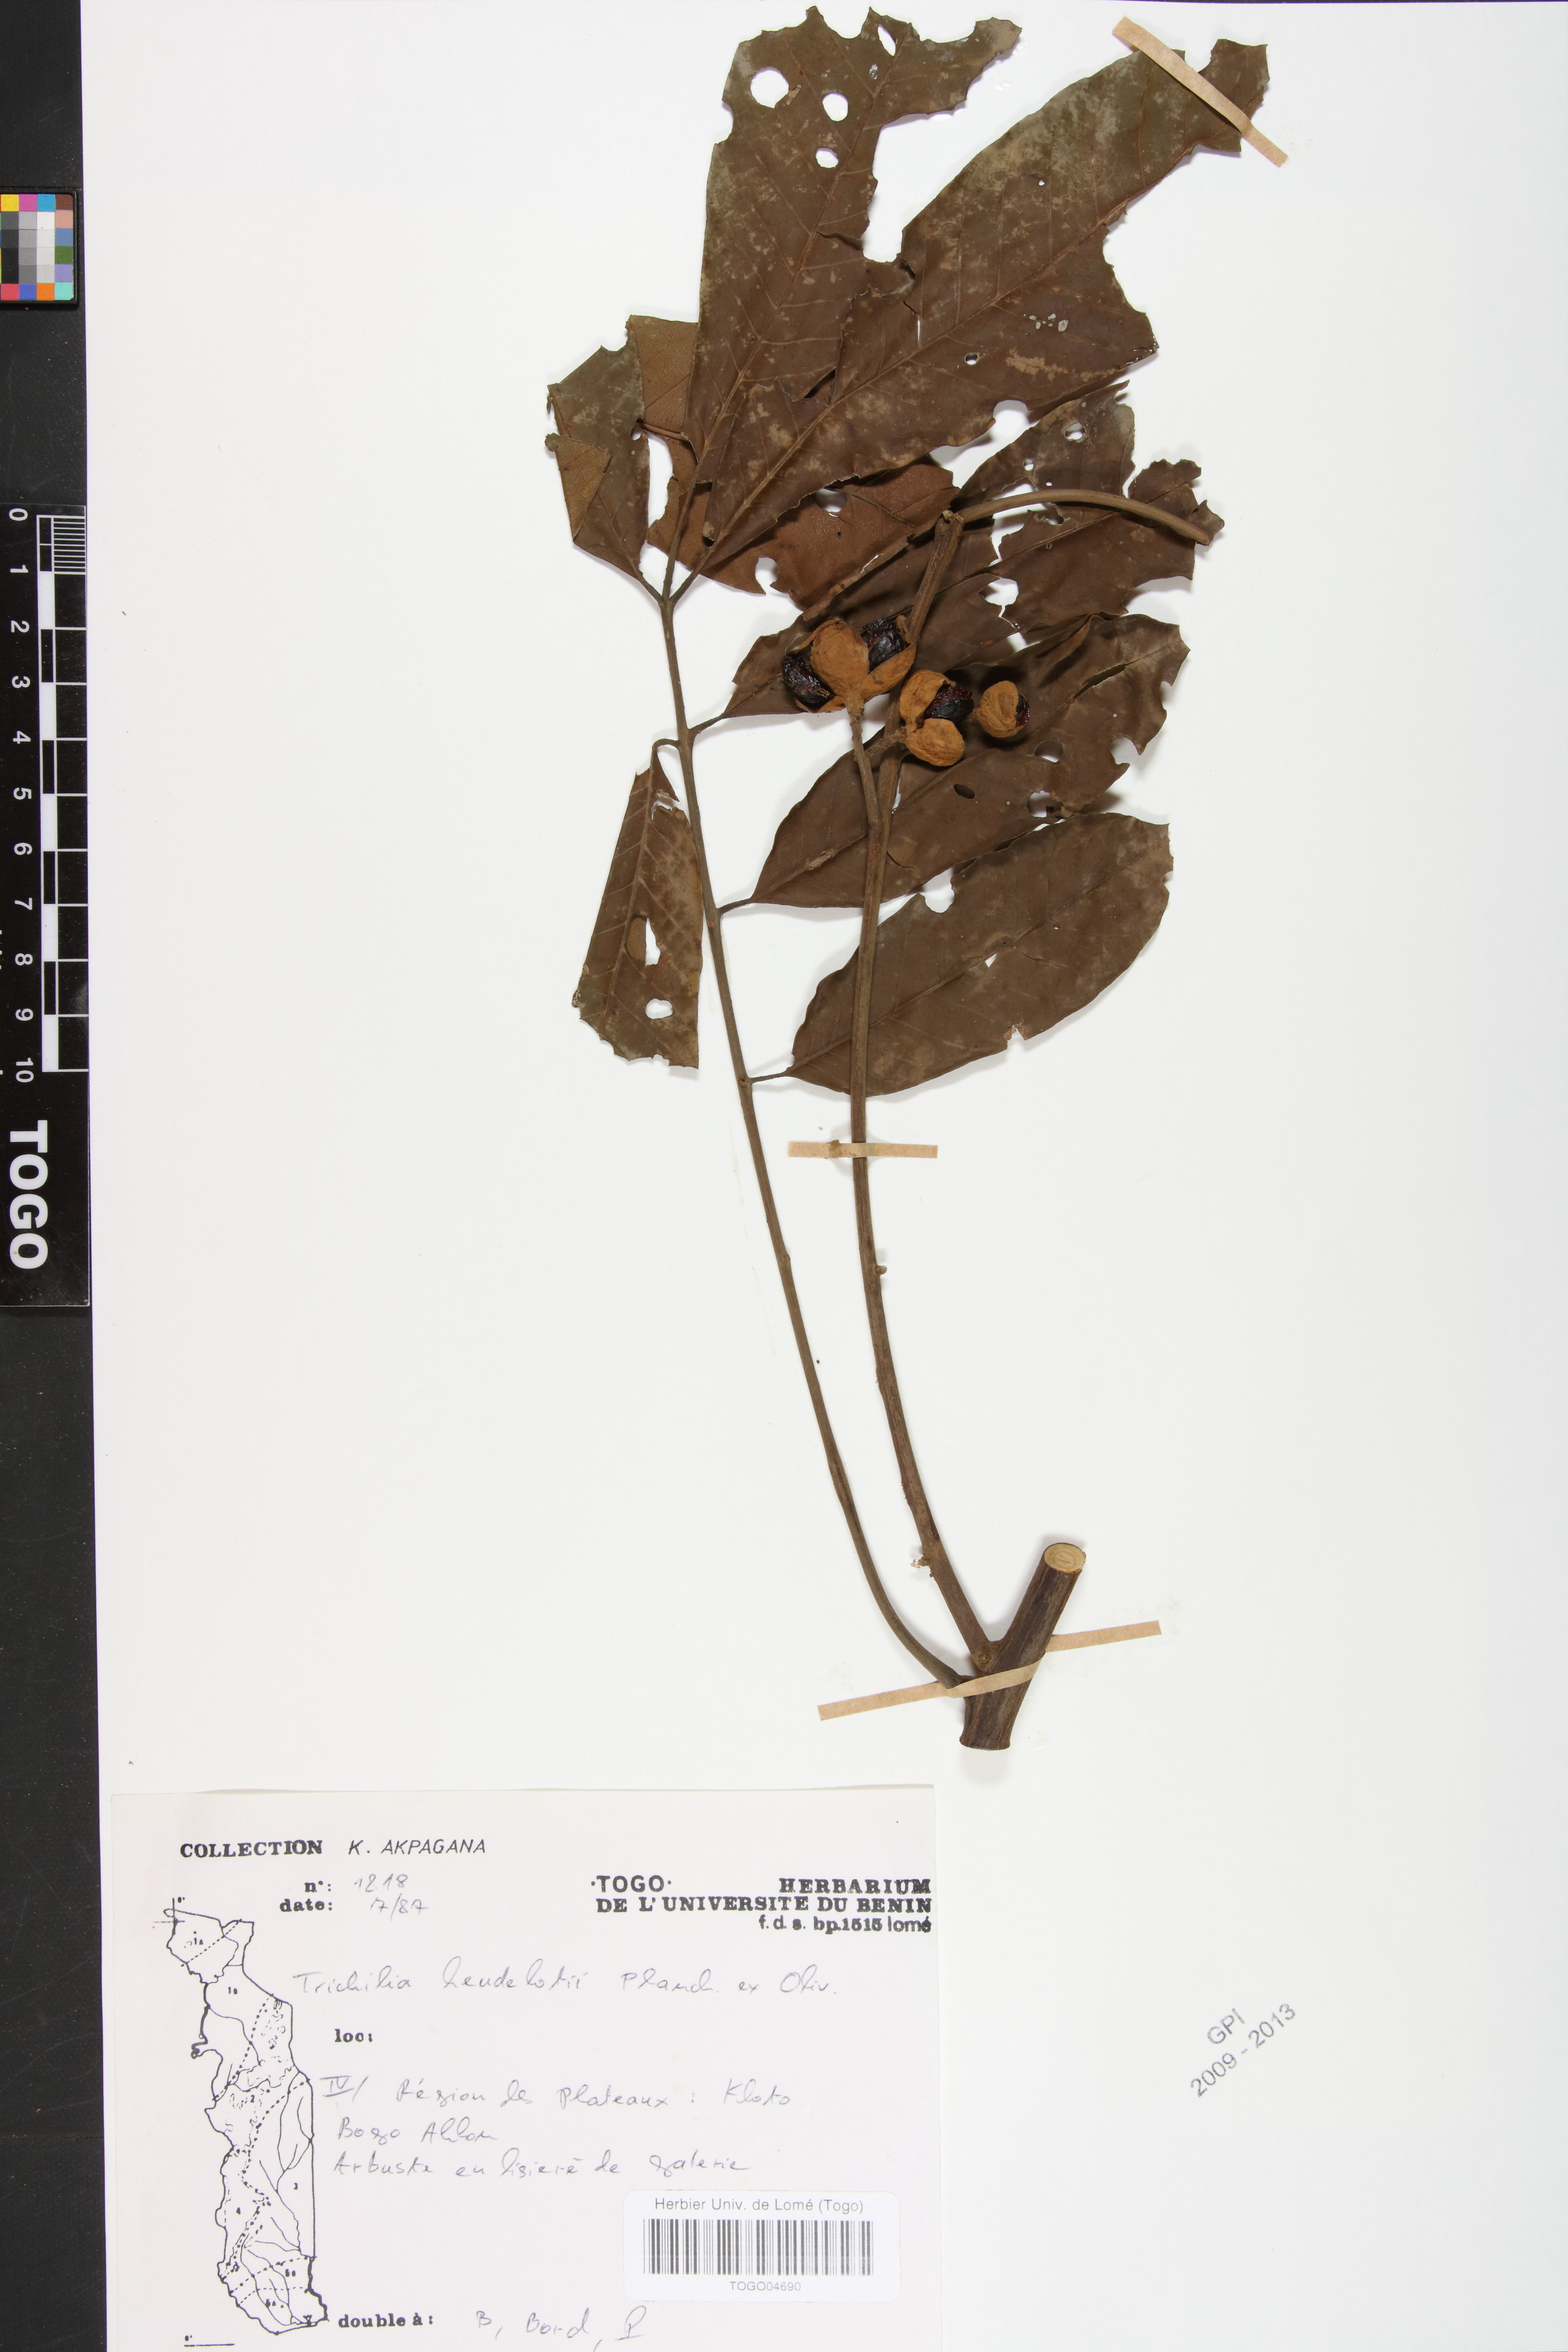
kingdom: Plantae
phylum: Tracheophyta
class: Magnoliopsida
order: Sapindales
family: Meliaceae
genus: Trichilia
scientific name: Trichilia monadelpha
